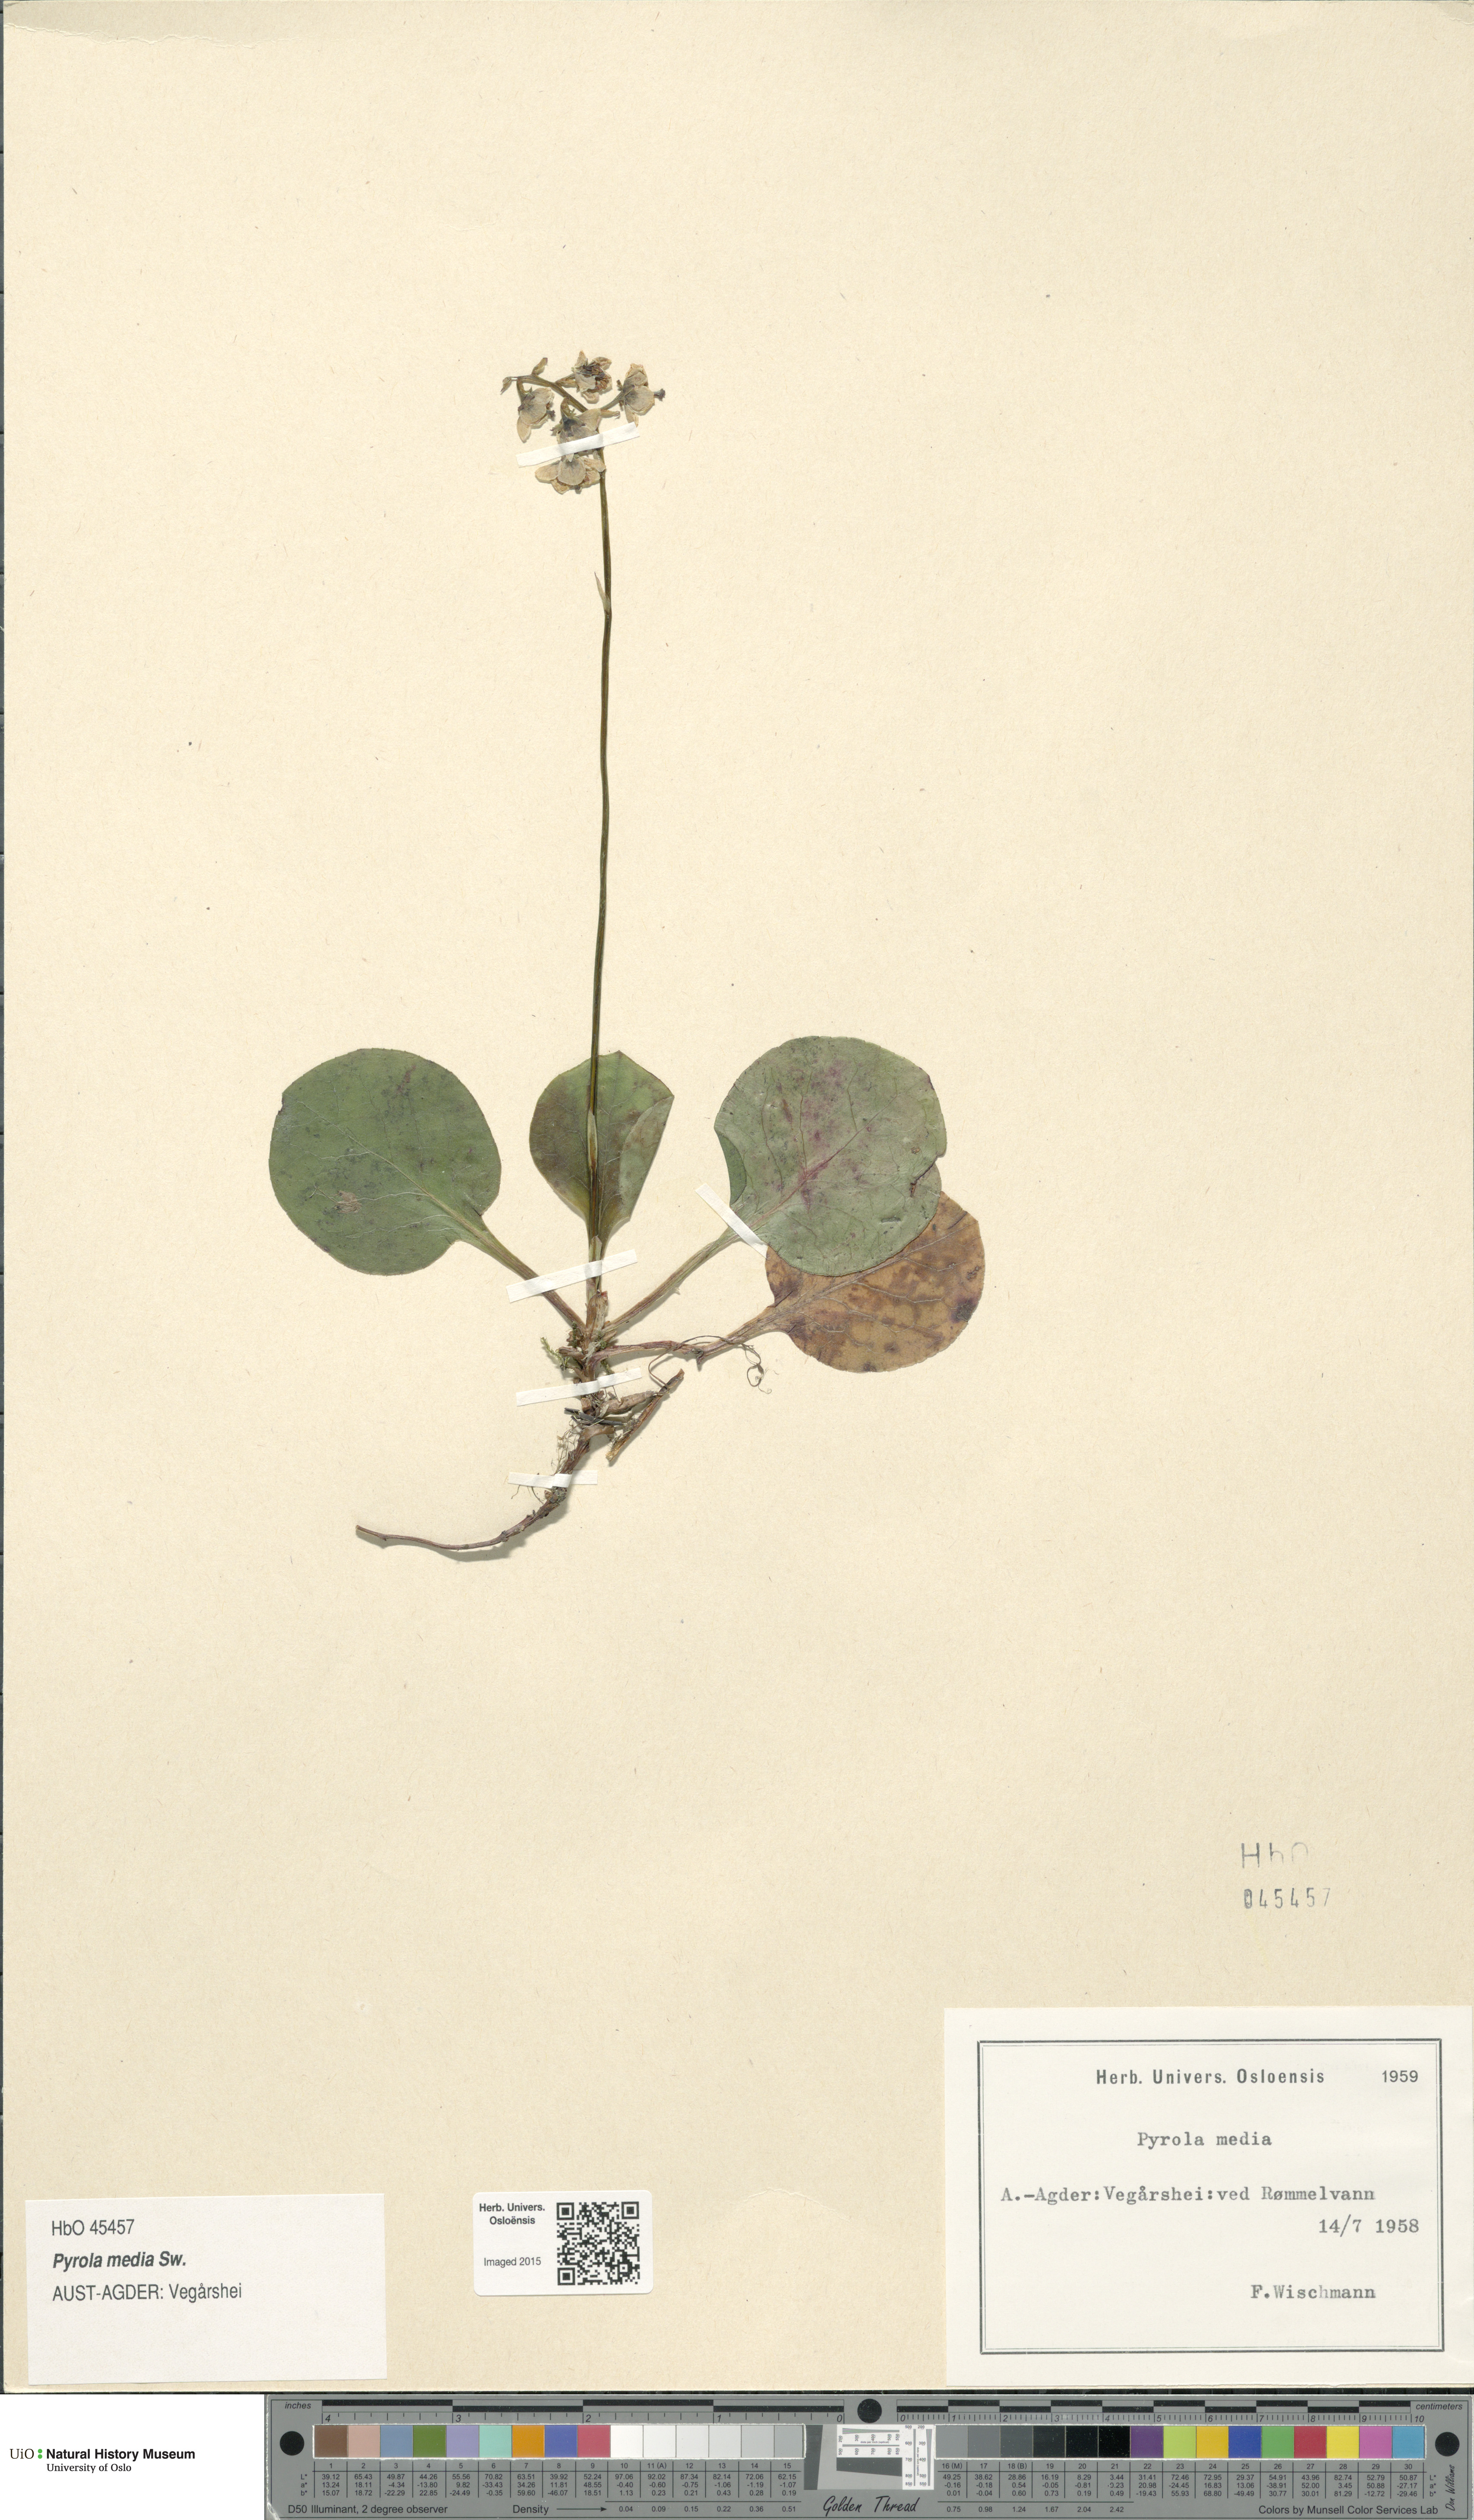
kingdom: Plantae
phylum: Tracheophyta
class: Magnoliopsida
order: Ericales
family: Ericaceae
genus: Pyrola
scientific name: Pyrola media
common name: Intermediate wintergreen
